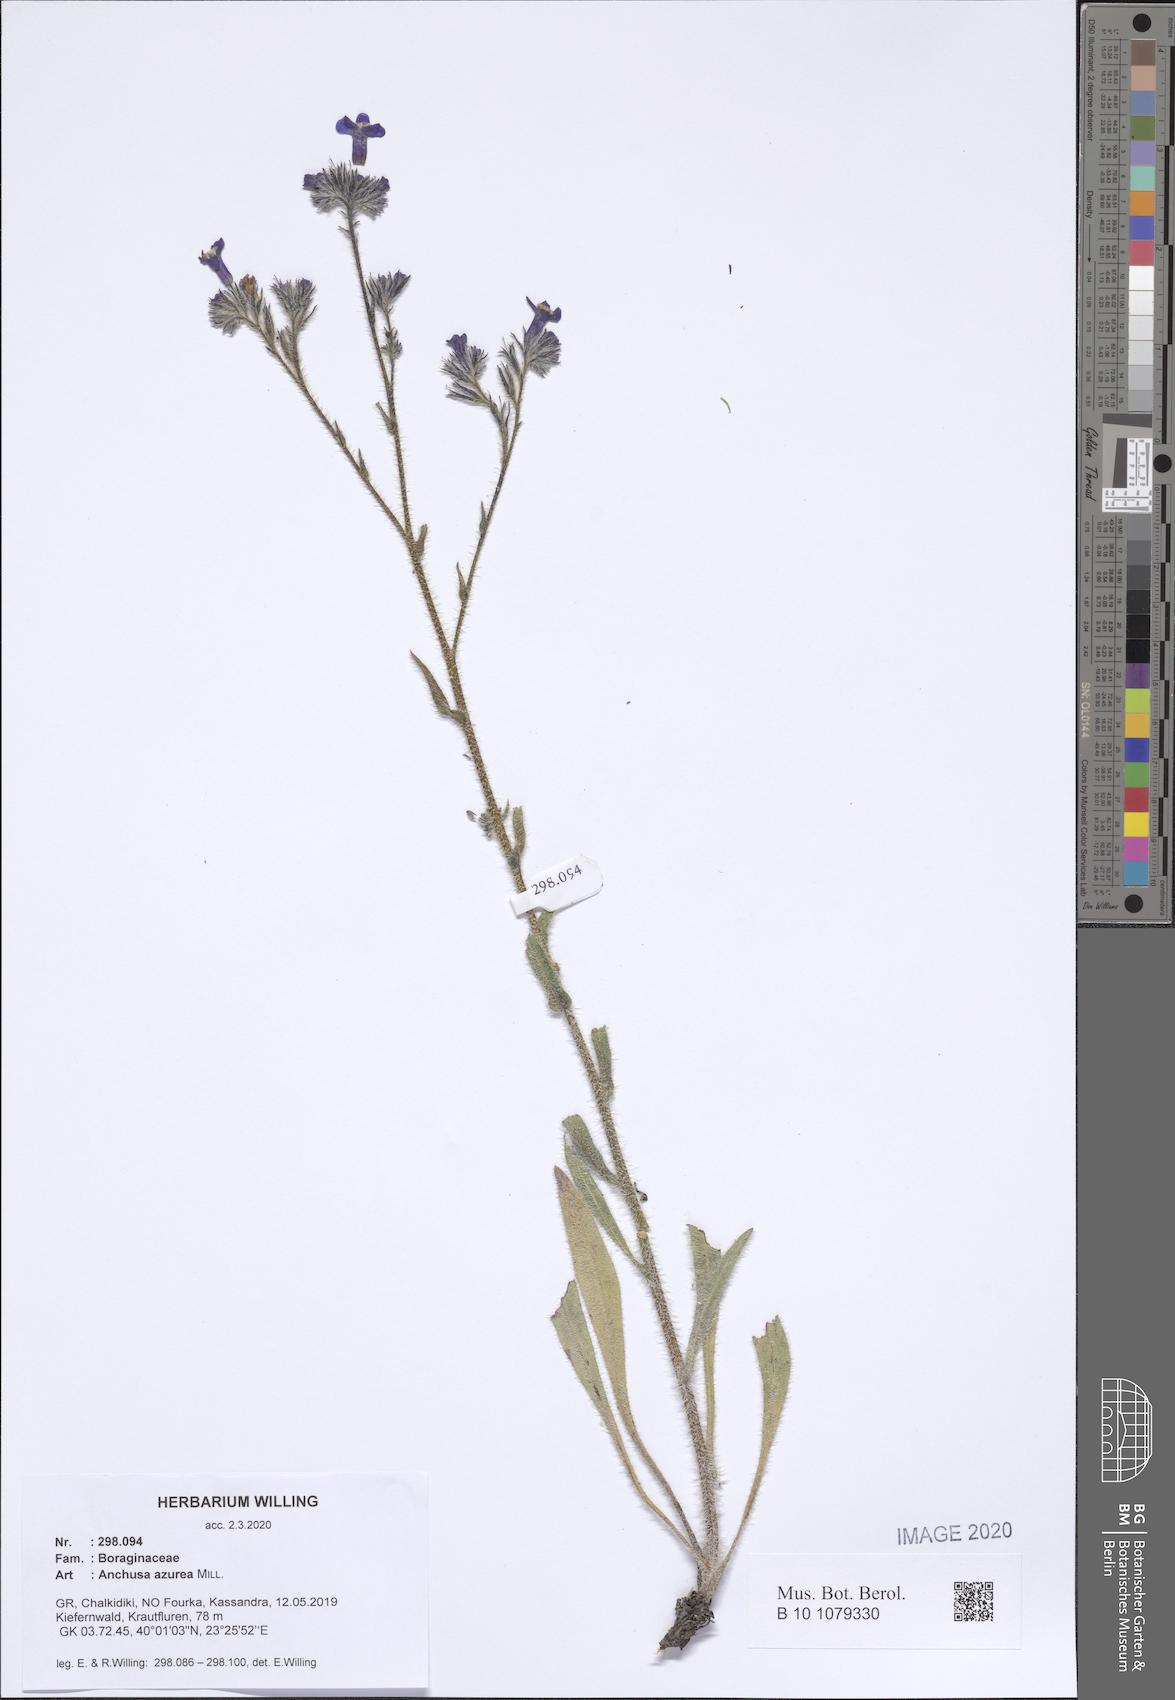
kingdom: Plantae
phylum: Tracheophyta
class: Magnoliopsida
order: Boraginales
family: Boraginaceae
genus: Anchusa
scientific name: Anchusa azurea
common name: Garden anchusa
